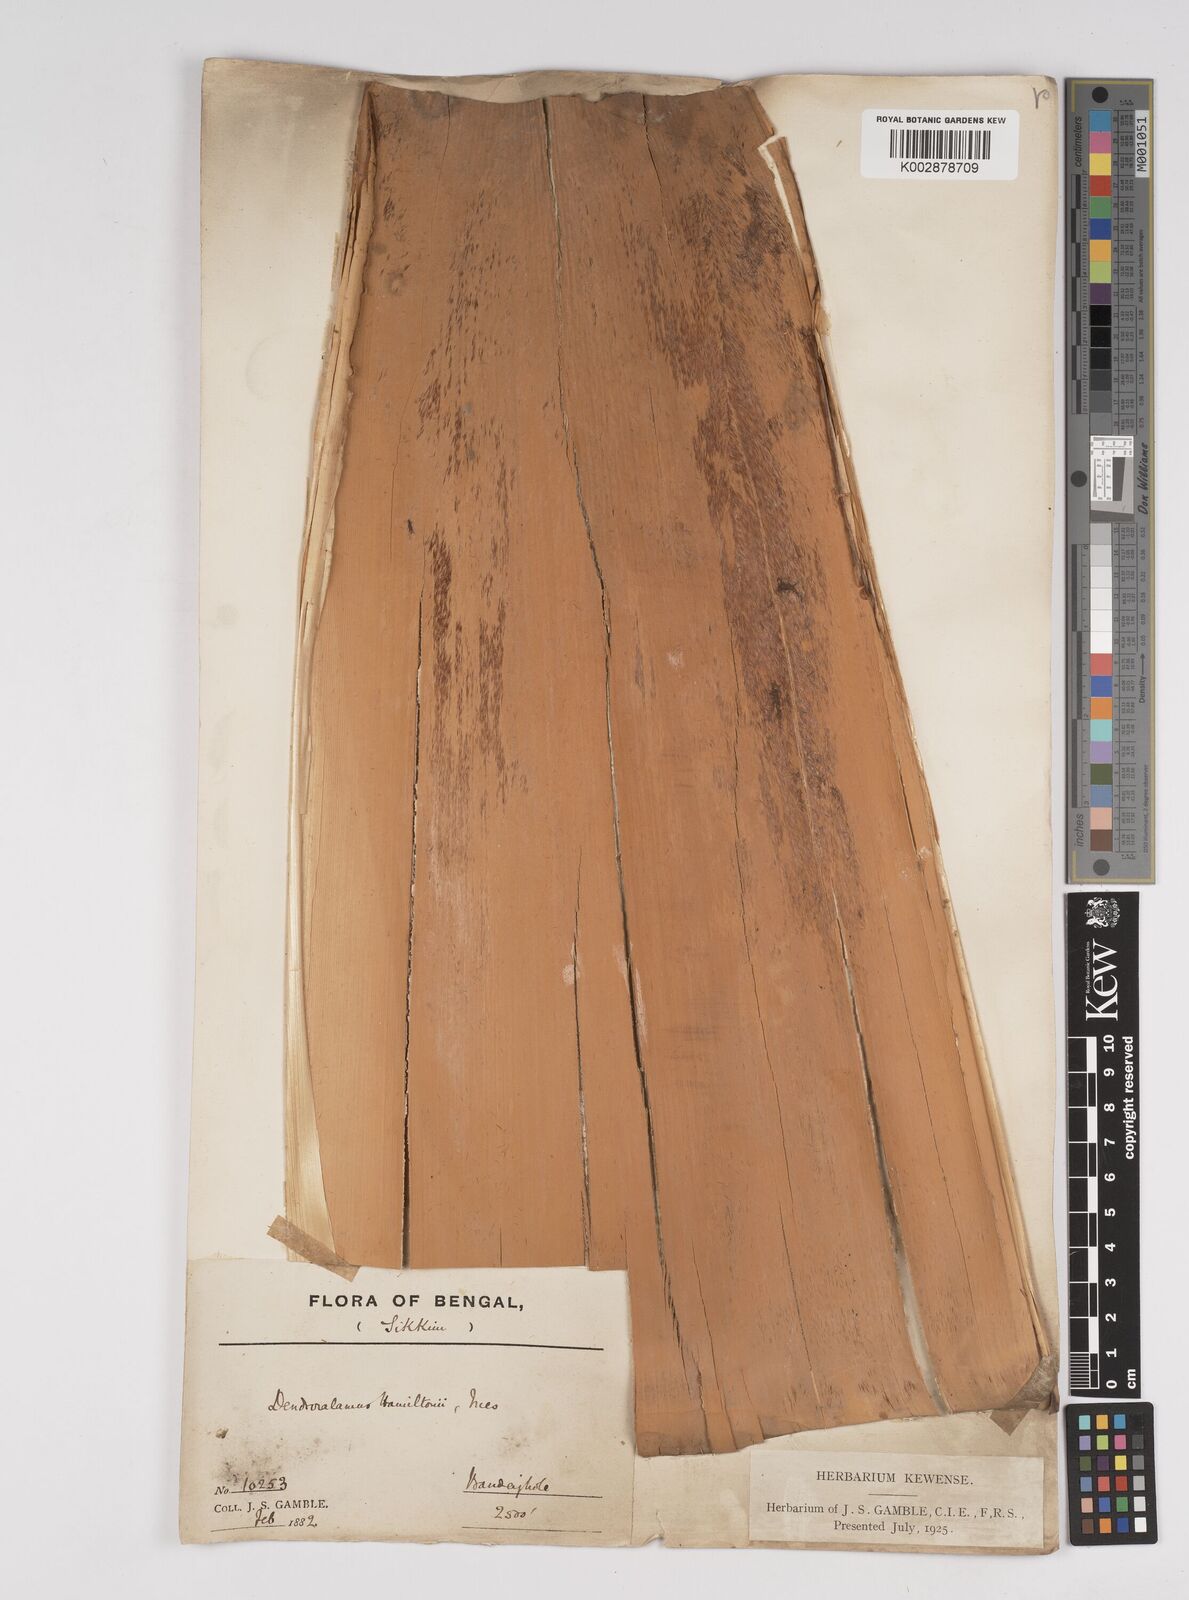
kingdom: Plantae
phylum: Tracheophyta
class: Liliopsida
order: Poales
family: Poaceae
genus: Dendrocalamus
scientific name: Dendrocalamus hamiltonii
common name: Tama bamboo
